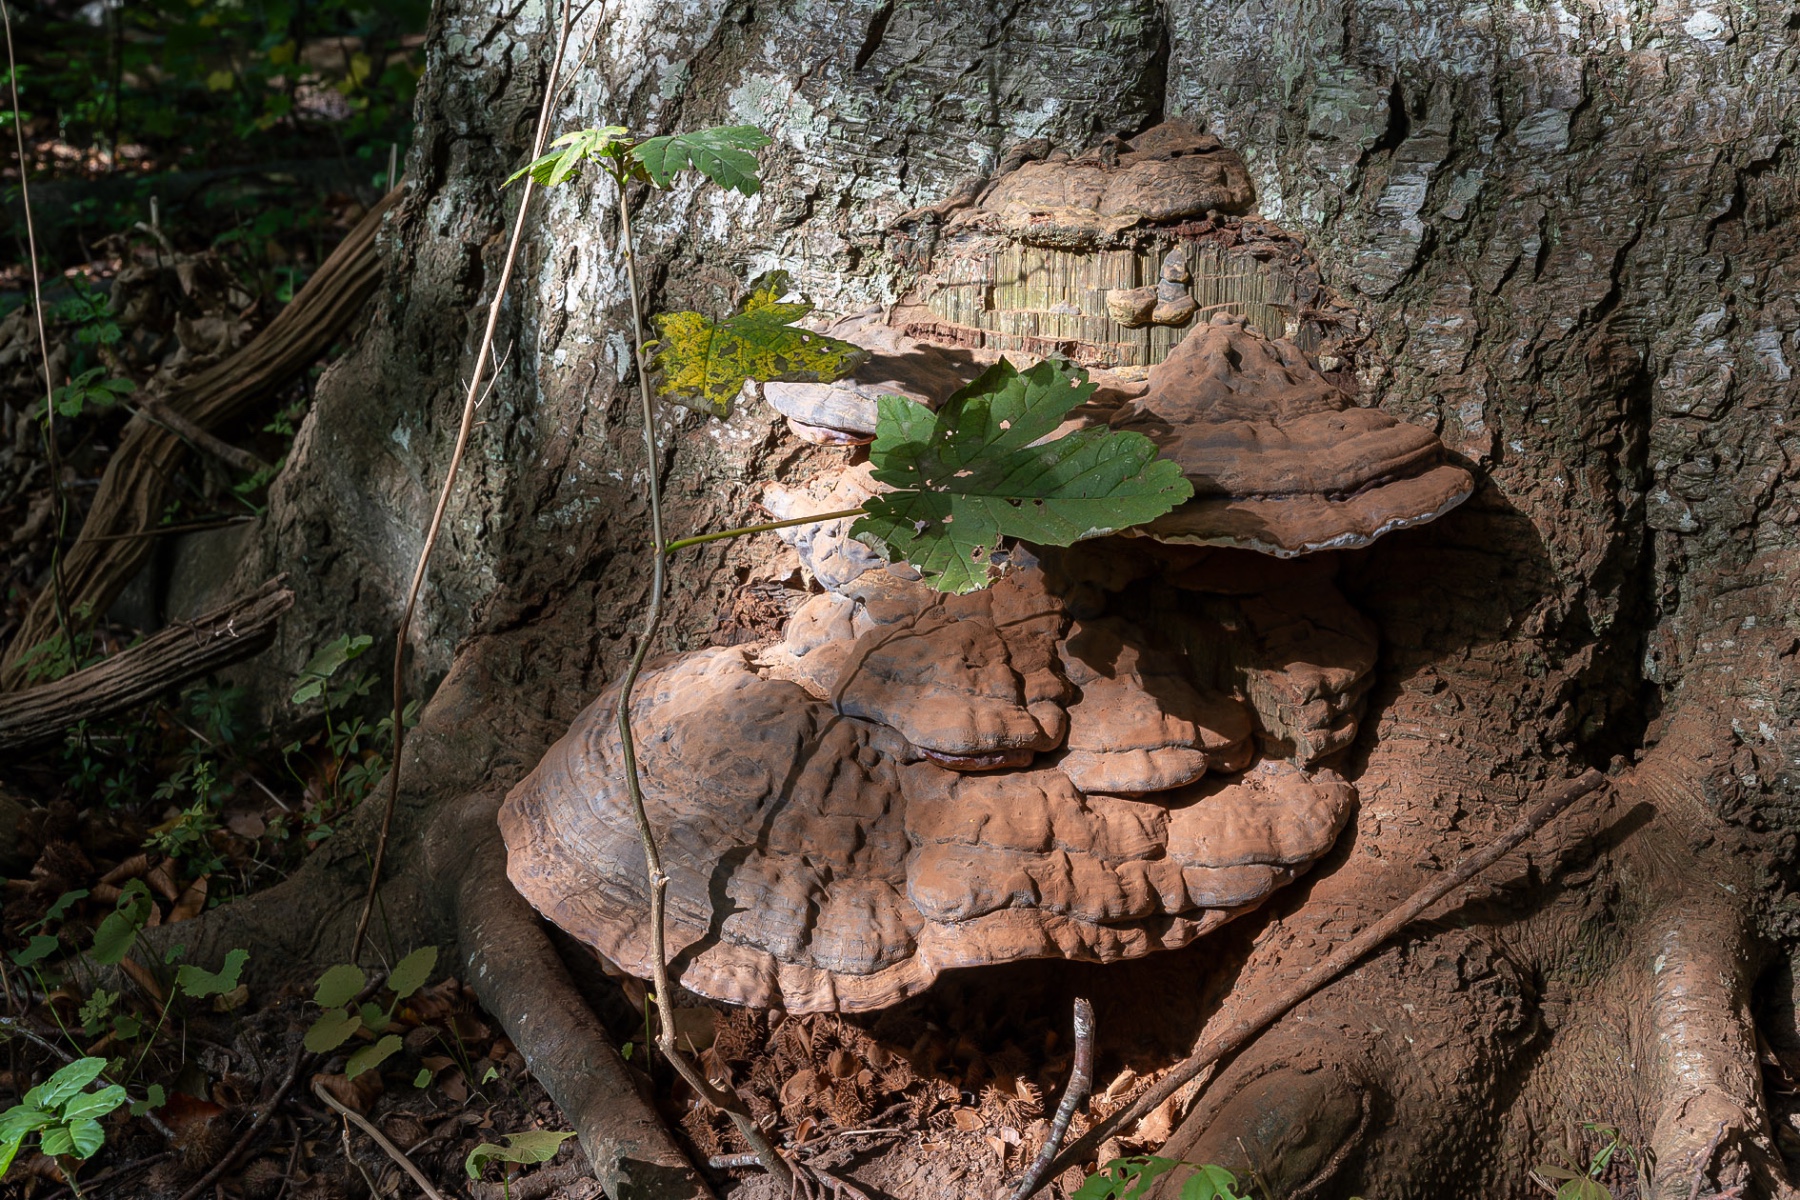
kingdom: Fungi
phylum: Basidiomycota
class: Agaricomycetes
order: Polyporales
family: Polyporaceae
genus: Ganoderma
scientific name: Ganoderma pfeifferi
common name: kobberrød lakporesvamp
